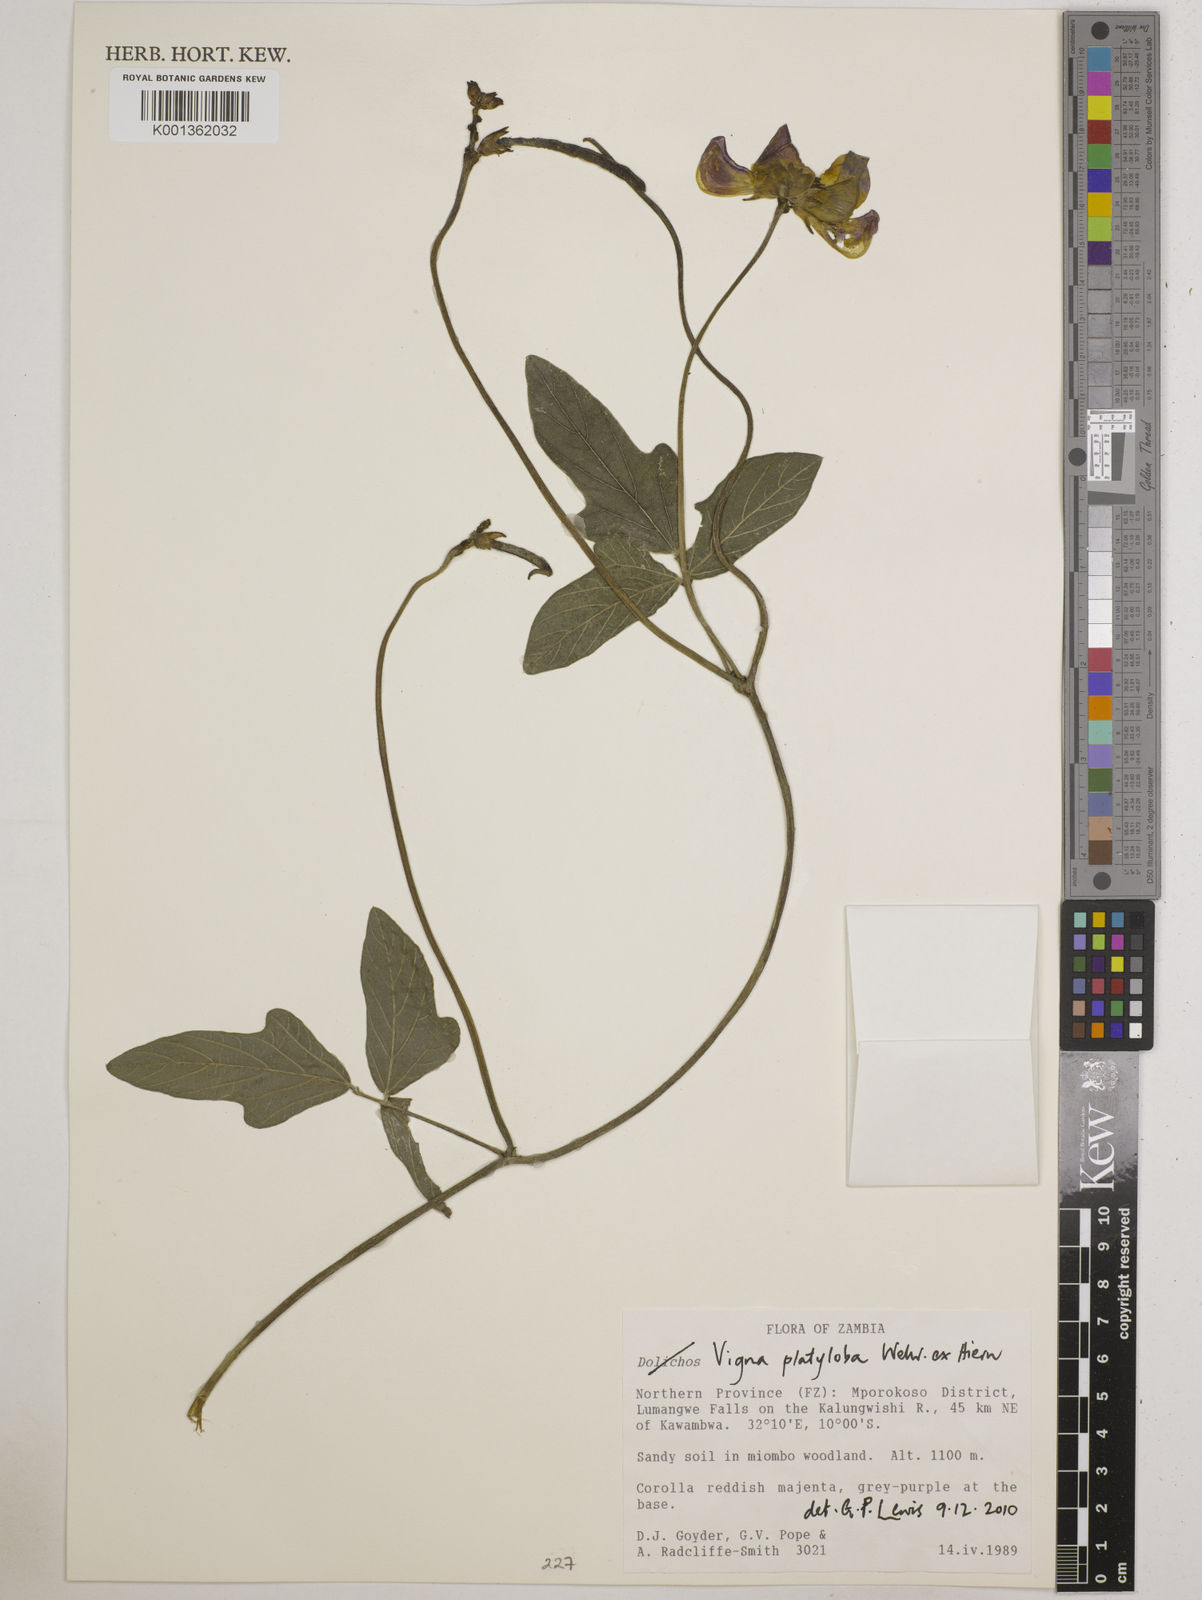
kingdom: Plantae
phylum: Tracheophyta
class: Magnoliopsida
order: Fabales
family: Fabaceae
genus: Vigna
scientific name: Vigna platyloba
